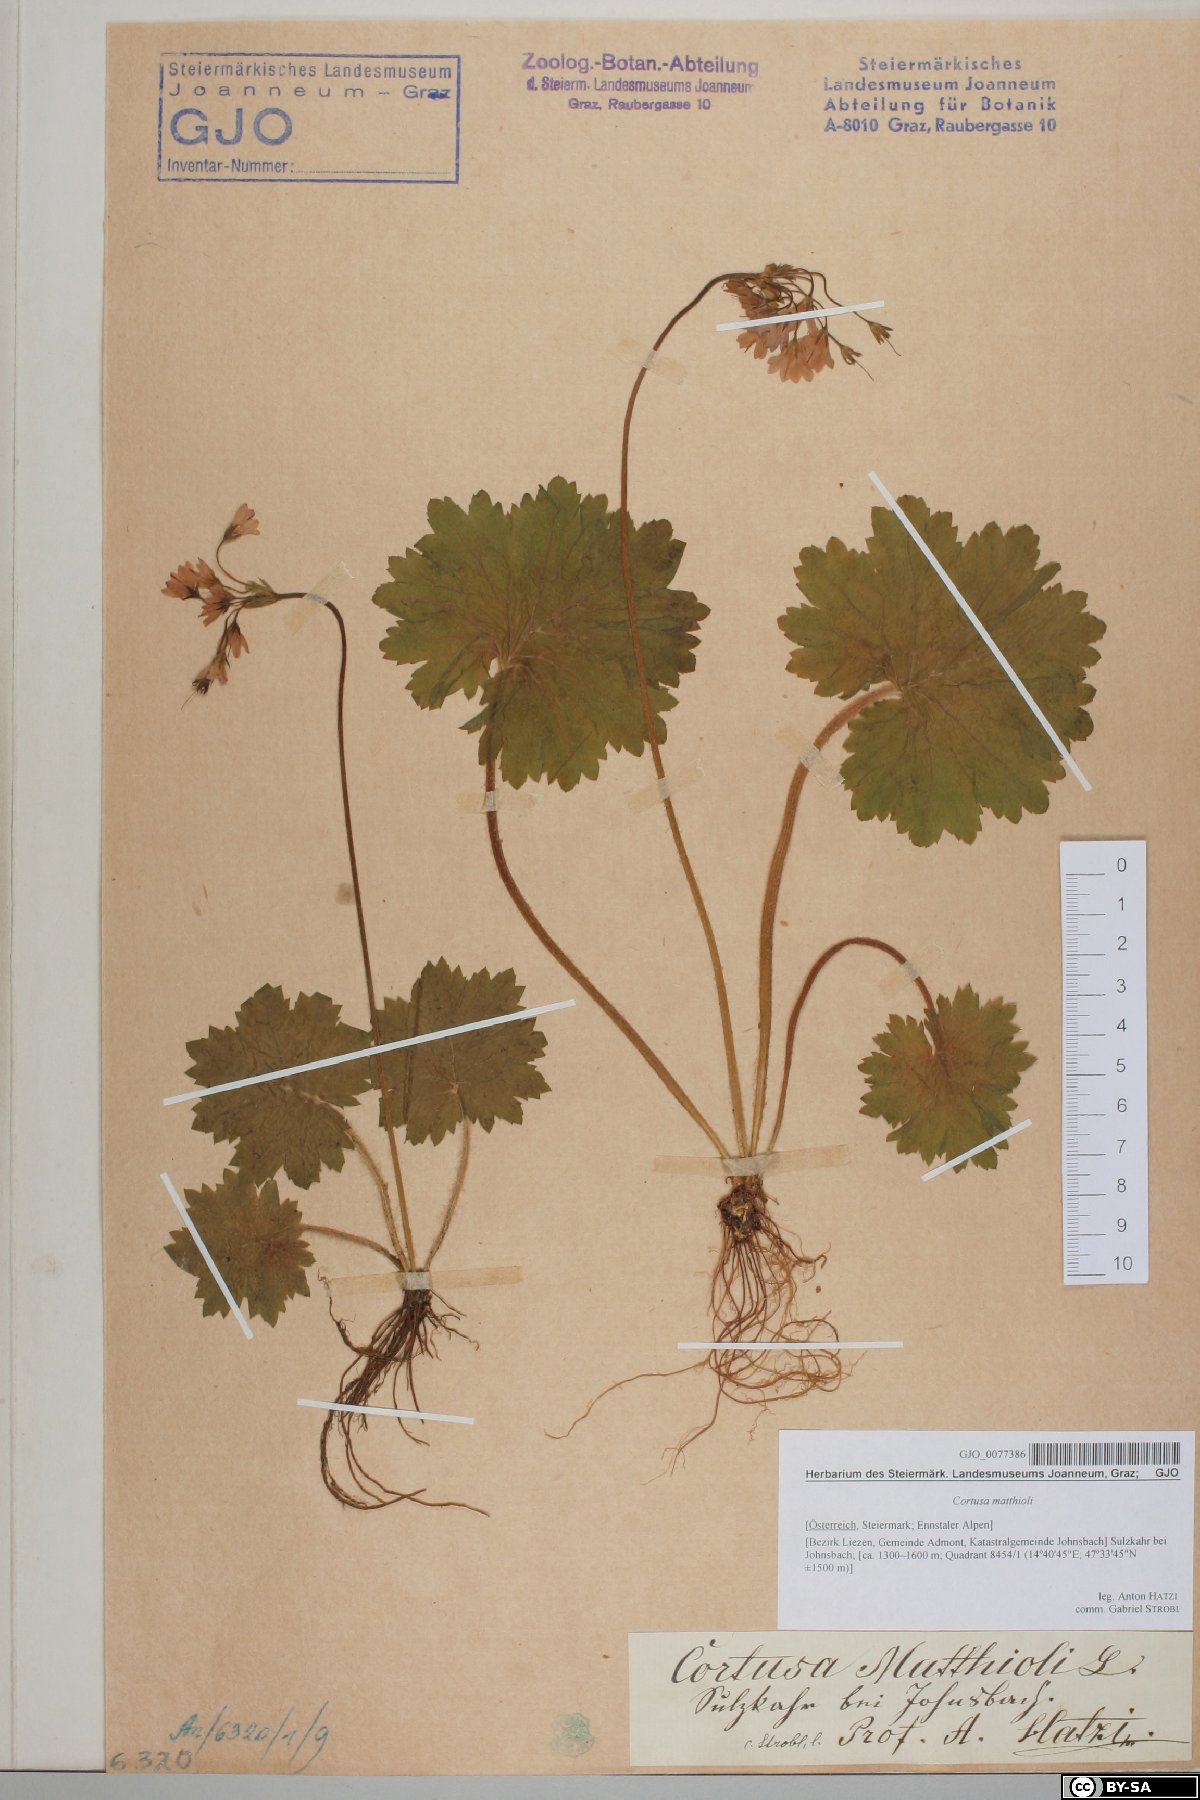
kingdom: Plantae
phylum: Tracheophyta
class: Magnoliopsida
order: Ericales
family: Primulaceae
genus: Primula
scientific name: Primula matthioli
